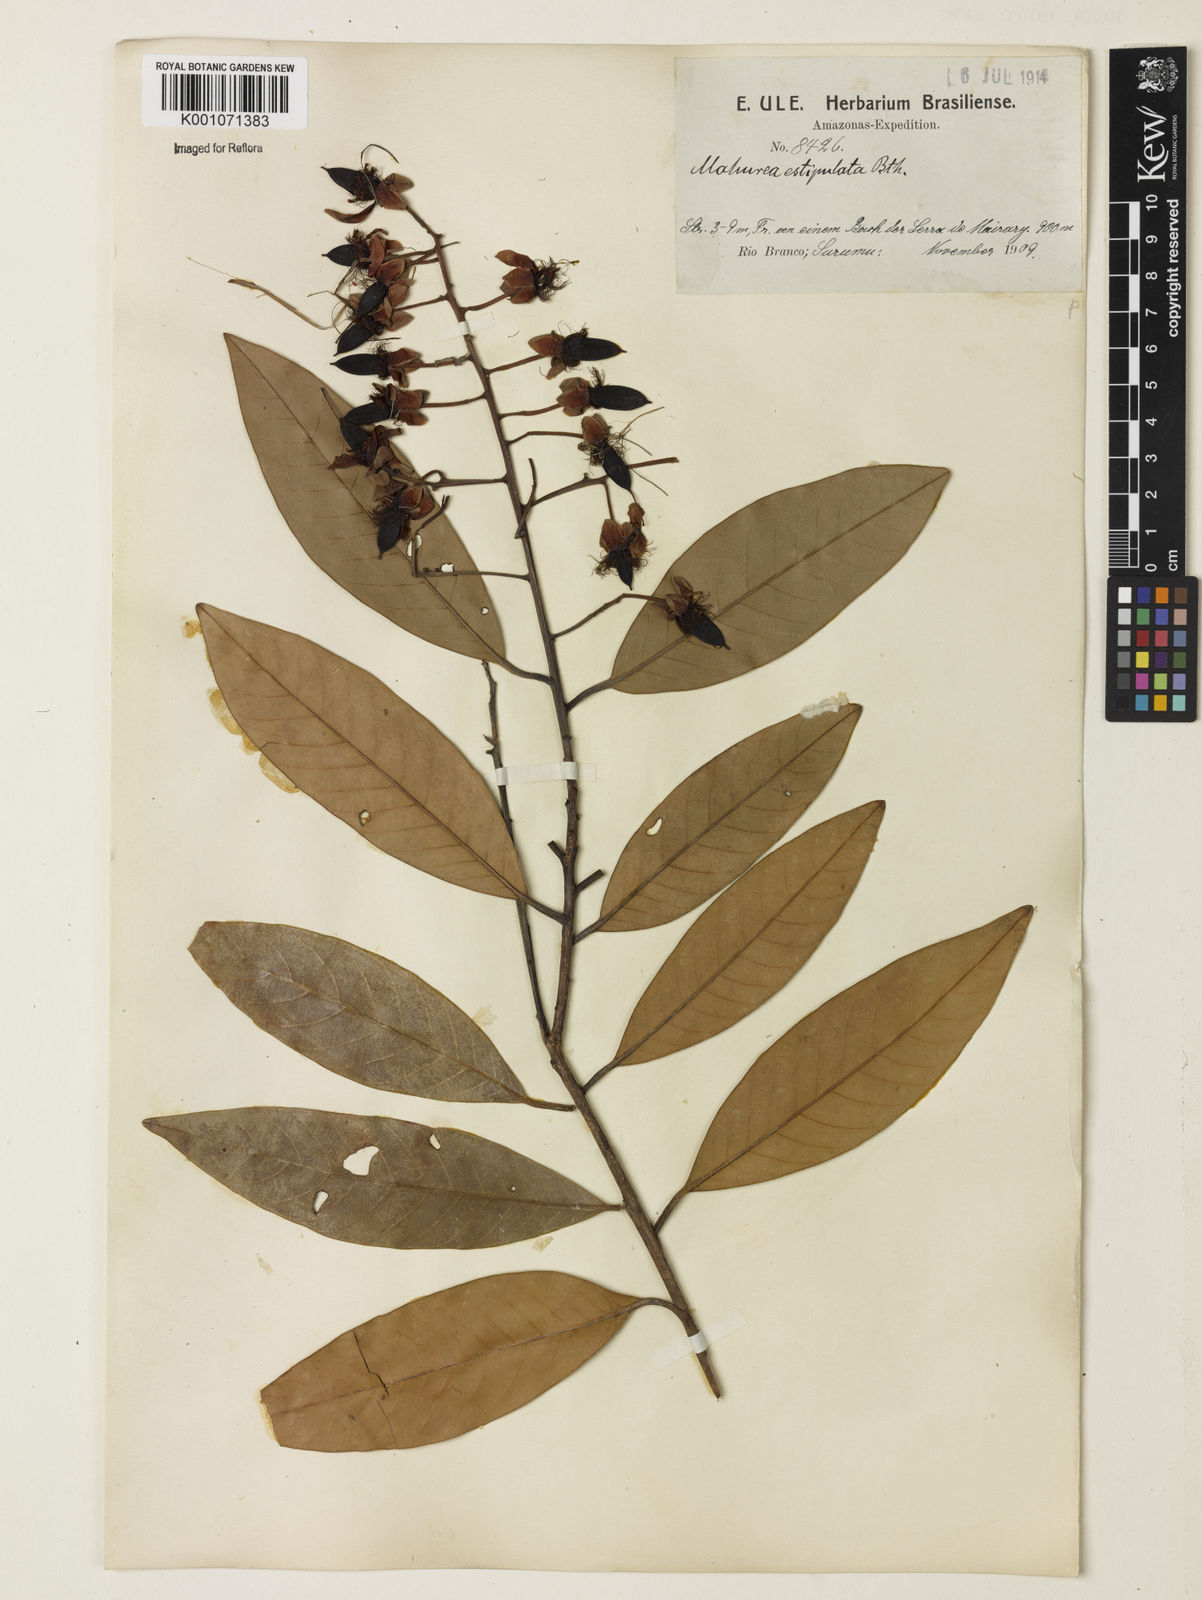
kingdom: Plantae
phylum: Tracheophyta
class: Magnoliopsida
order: Malpighiales
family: Calophyllaceae
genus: Mahurea
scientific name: Mahurea exstipulata
